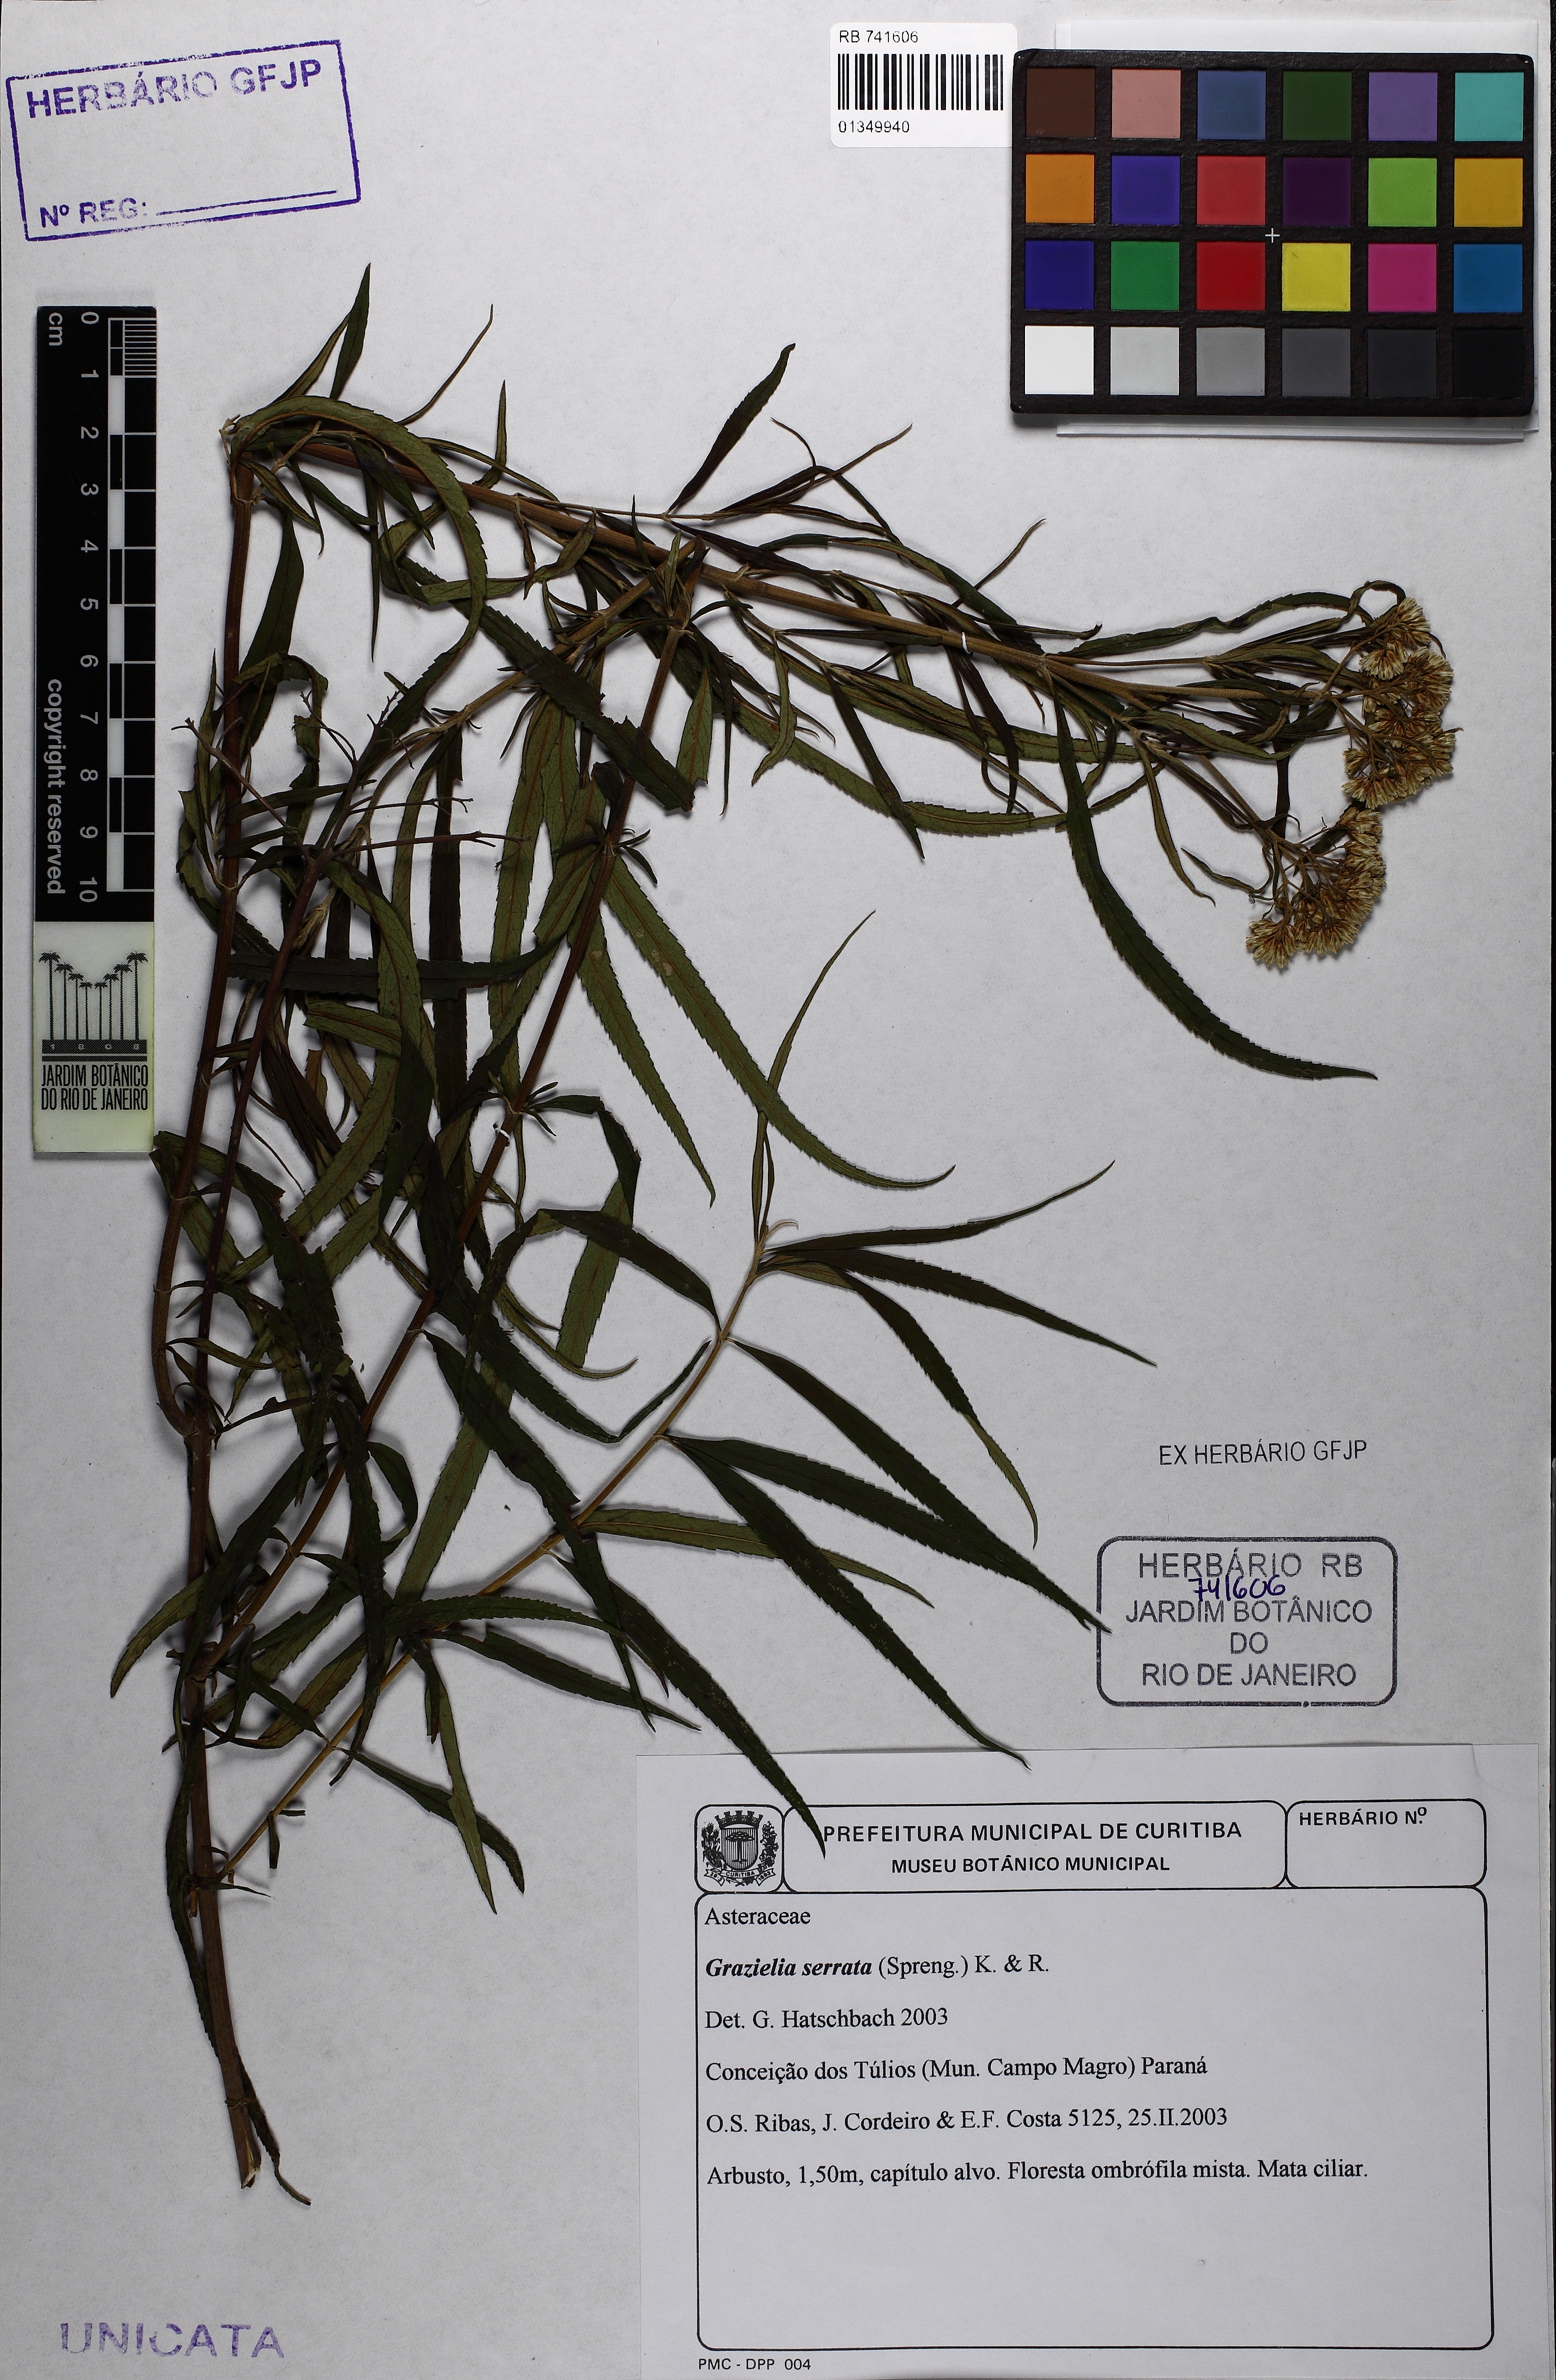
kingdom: Plantae
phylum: Tracheophyta
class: Magnoliopsida
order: Asterales
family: Asteraceae
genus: Grazielia
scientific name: Grazielia serrata
